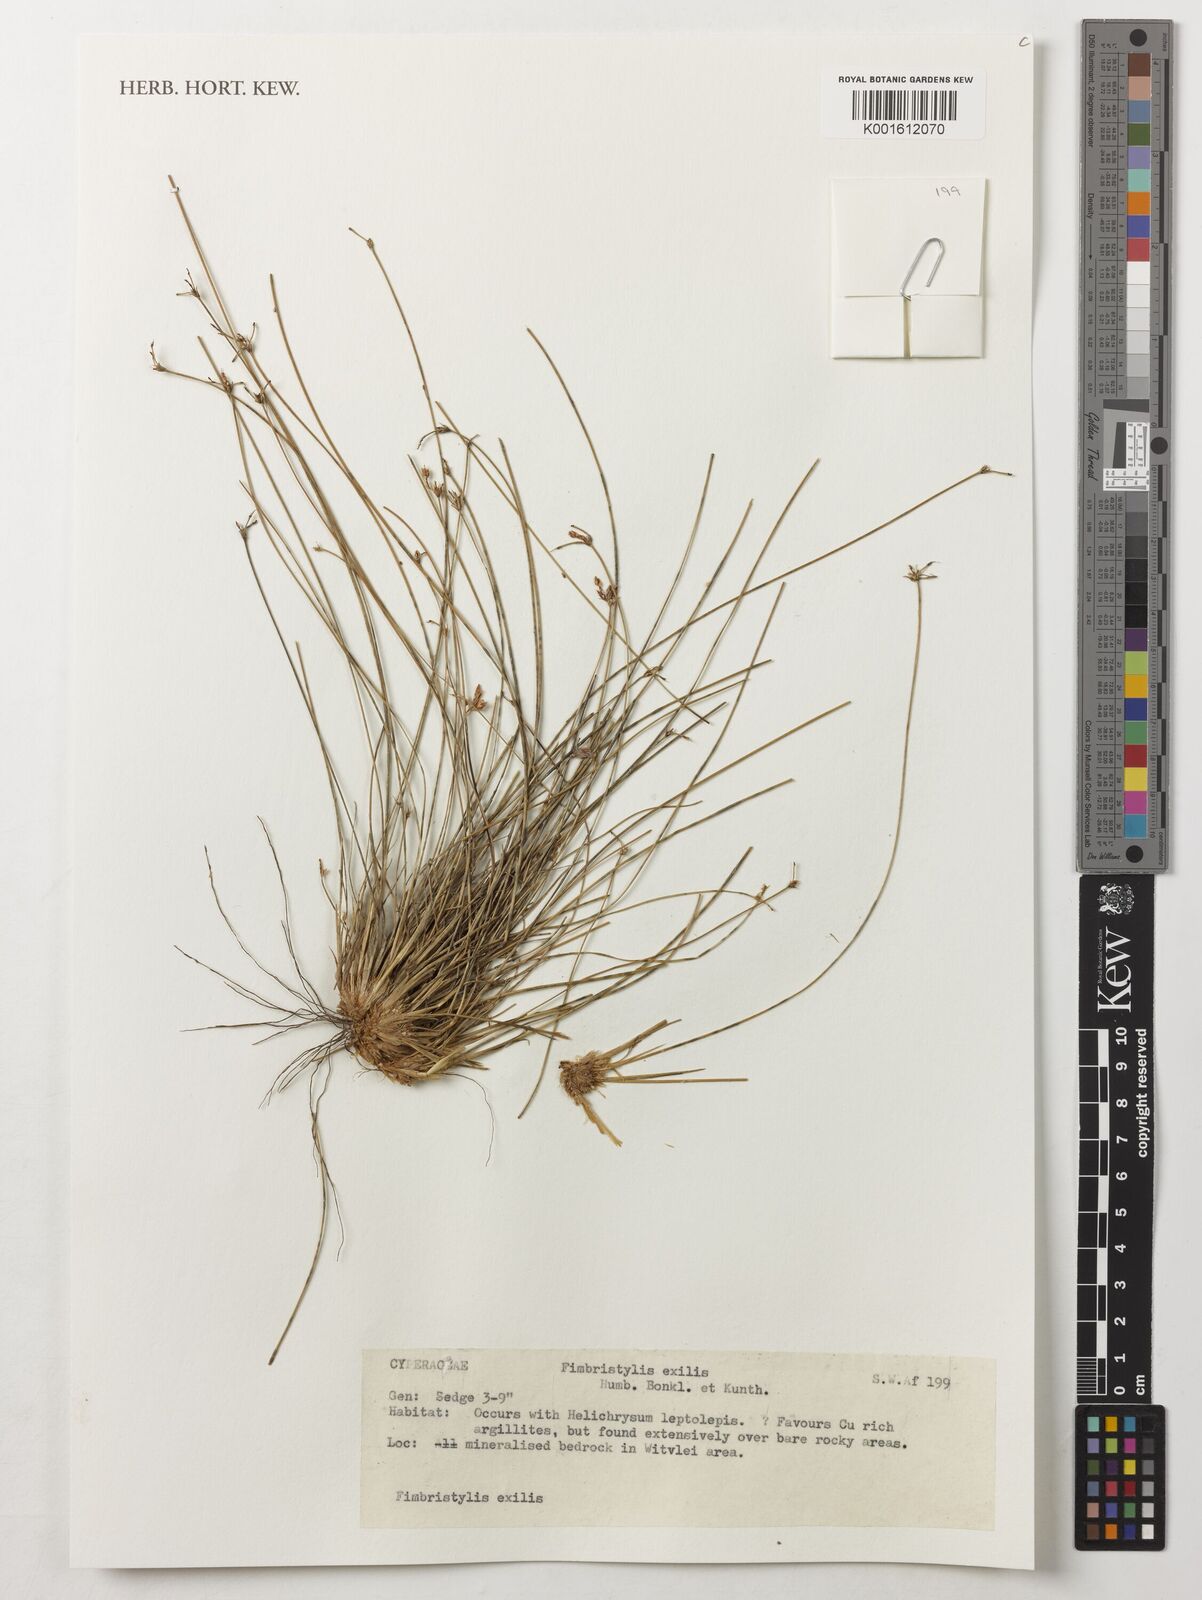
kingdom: Plantae
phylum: Tracheophyta
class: Liliopsida
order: Poales
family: Cyperaceae
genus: Bulbostylis
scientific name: Bulbostylis hispidula
